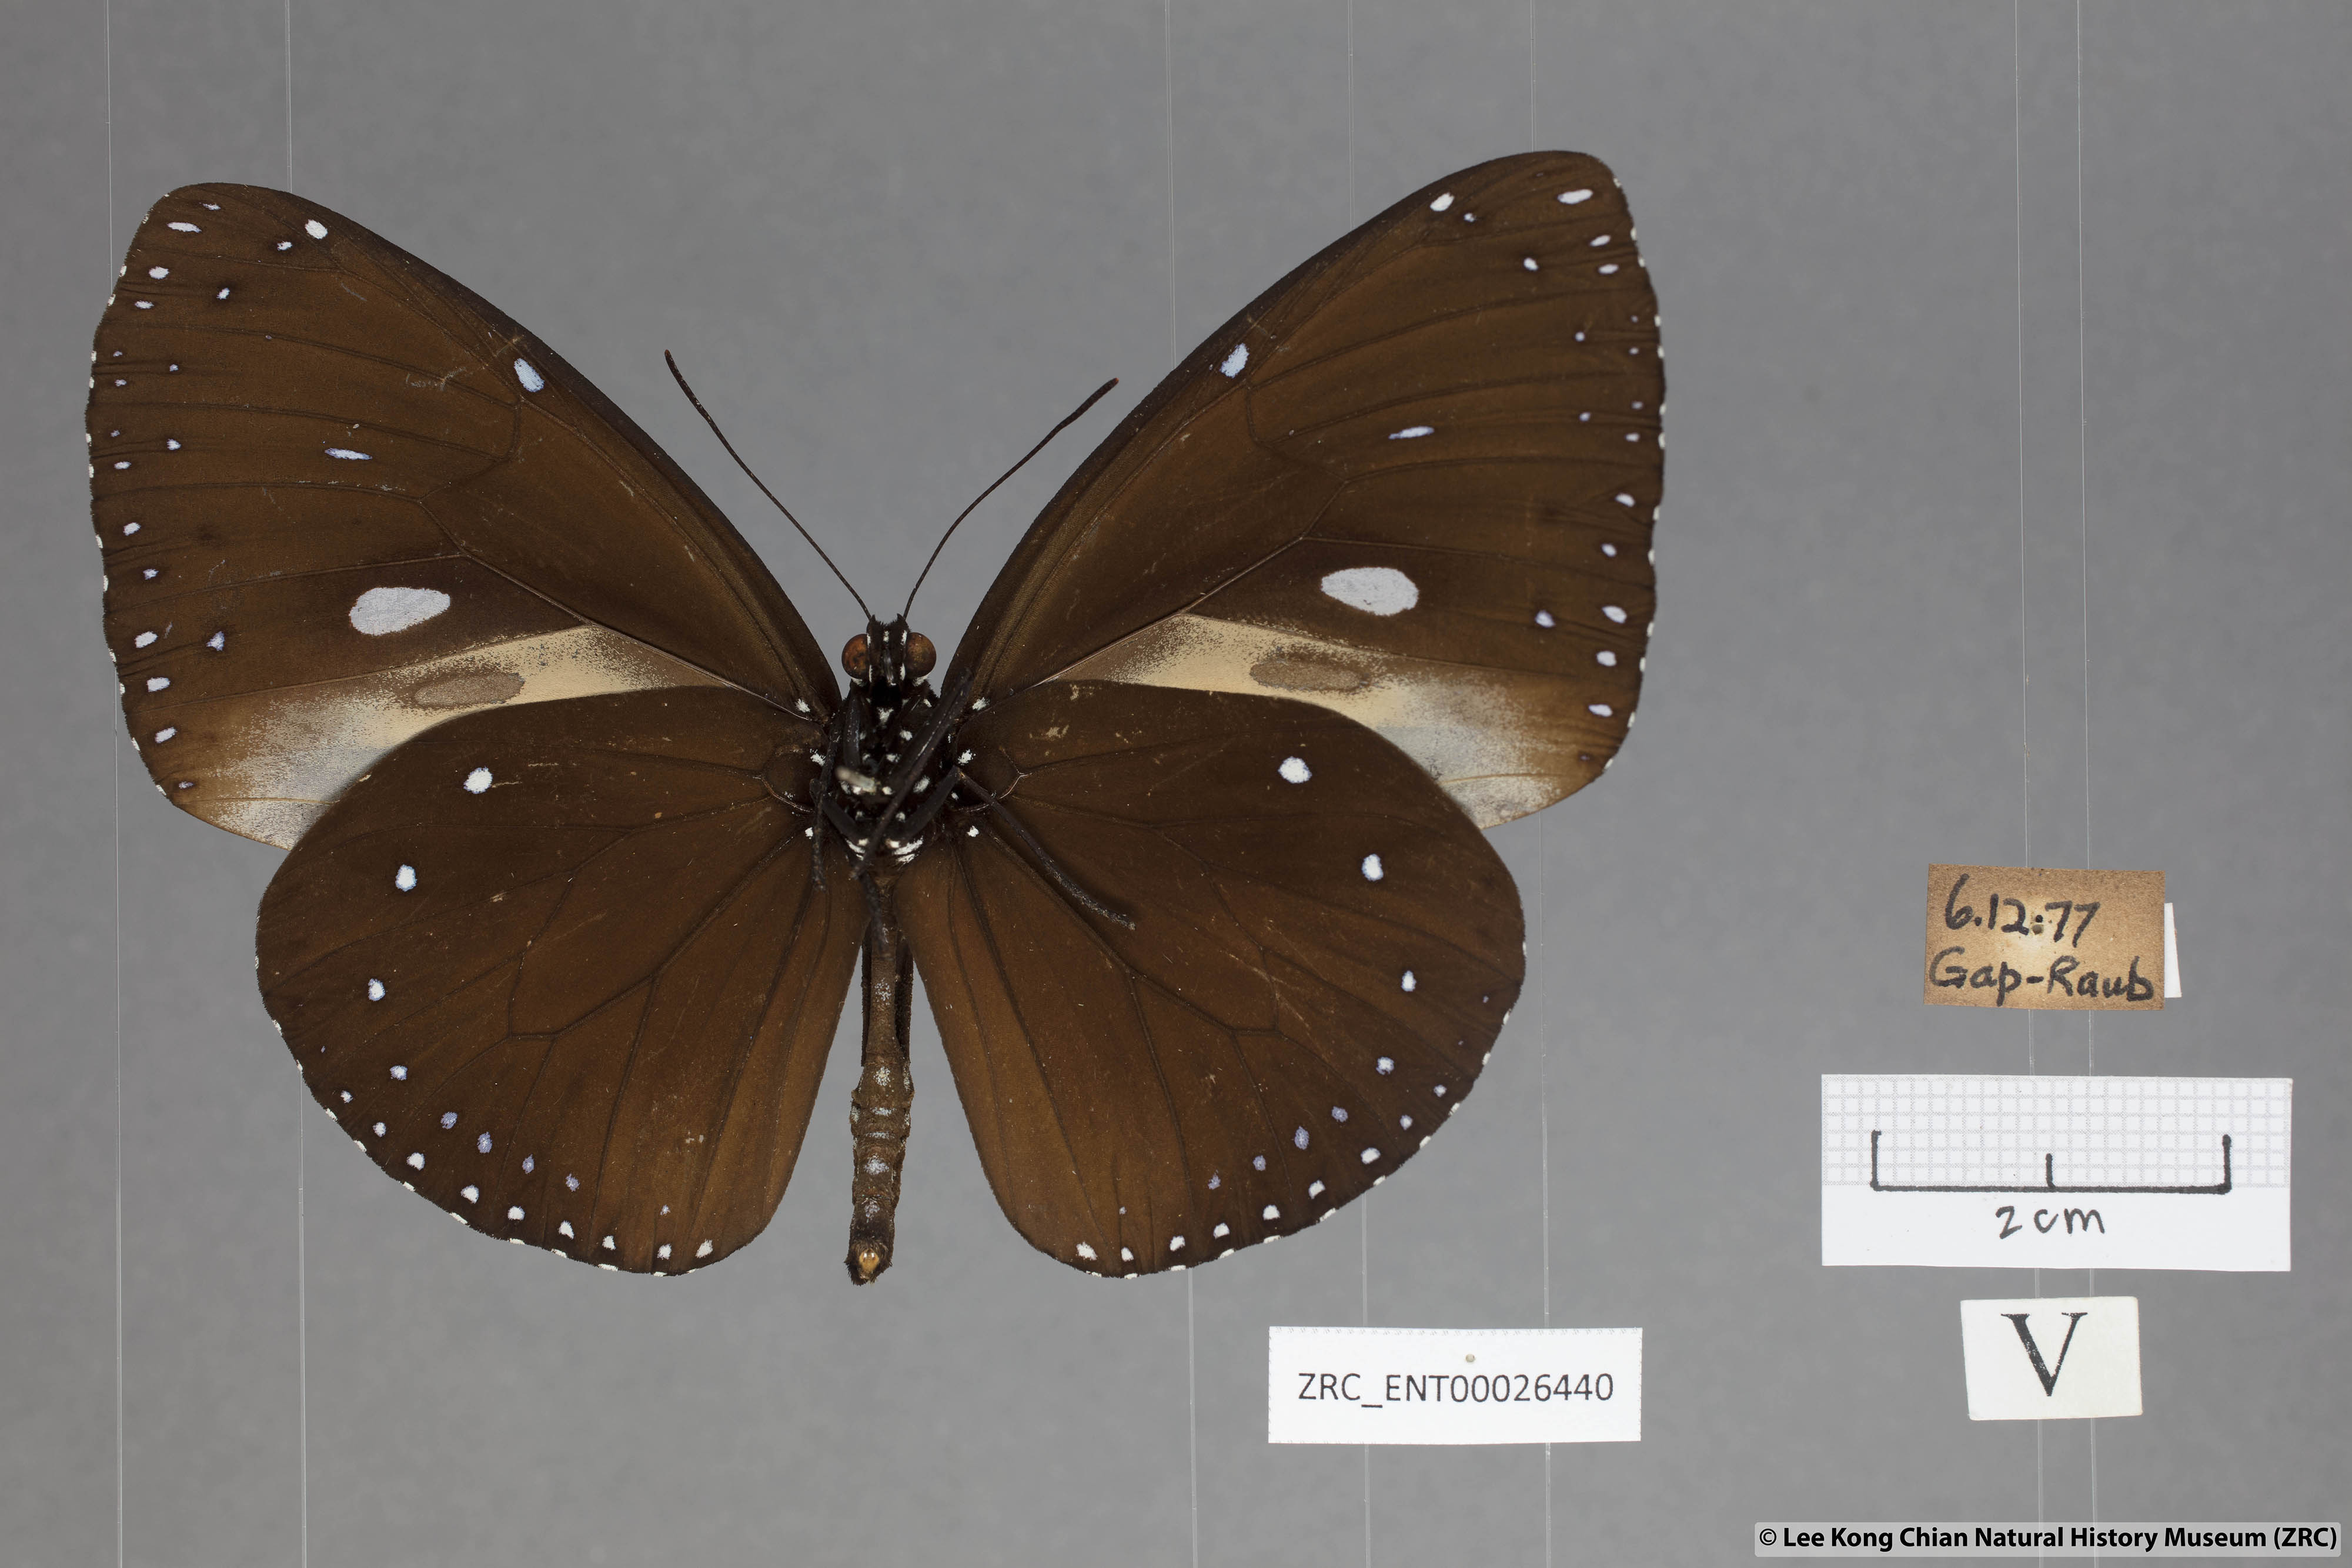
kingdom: Animalia
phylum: Arthropoda
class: Insecta
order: Lepidoptera
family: Nymphalidae
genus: Euploea
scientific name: Euploea eunice
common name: Blue-banded king crow butterfly
